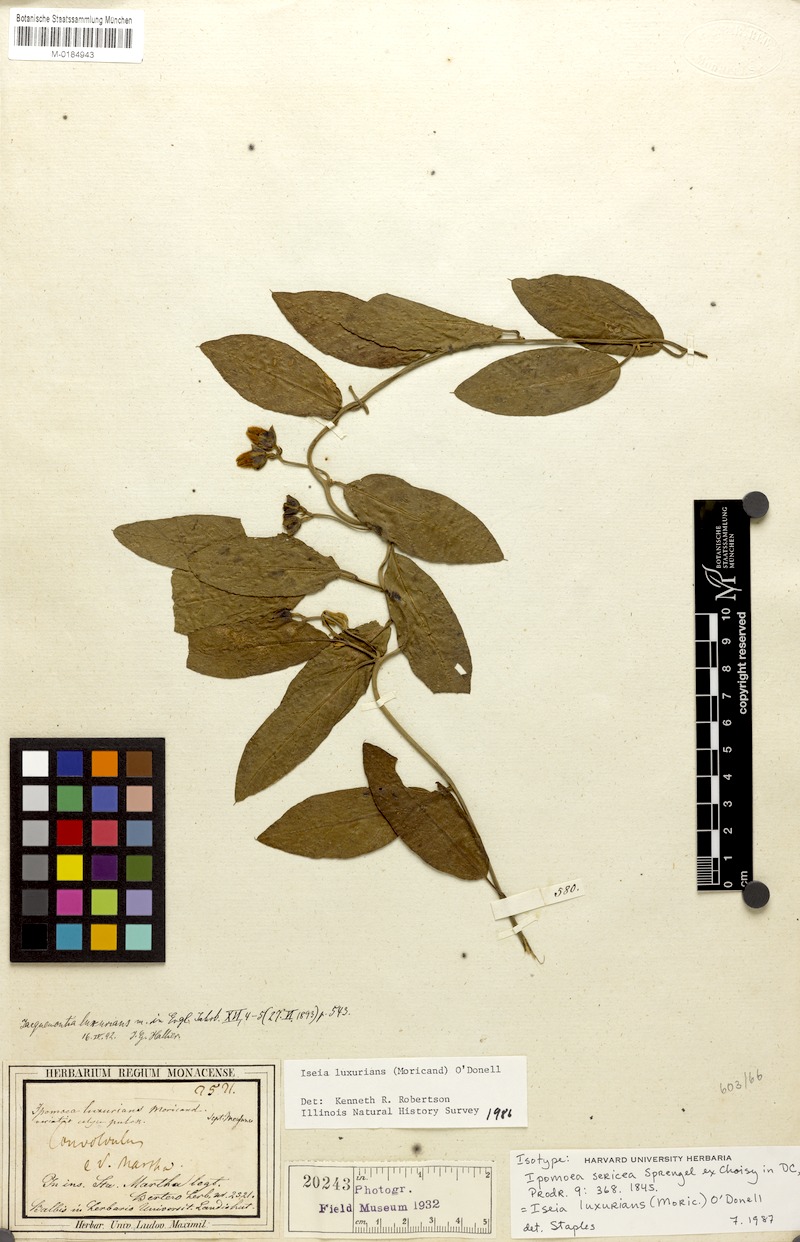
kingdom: Plantae
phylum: Tracheophyta
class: Magnoliopsida
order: Solanales
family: Convolvulaceae
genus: Aniseia
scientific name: Aniseia luxurians
